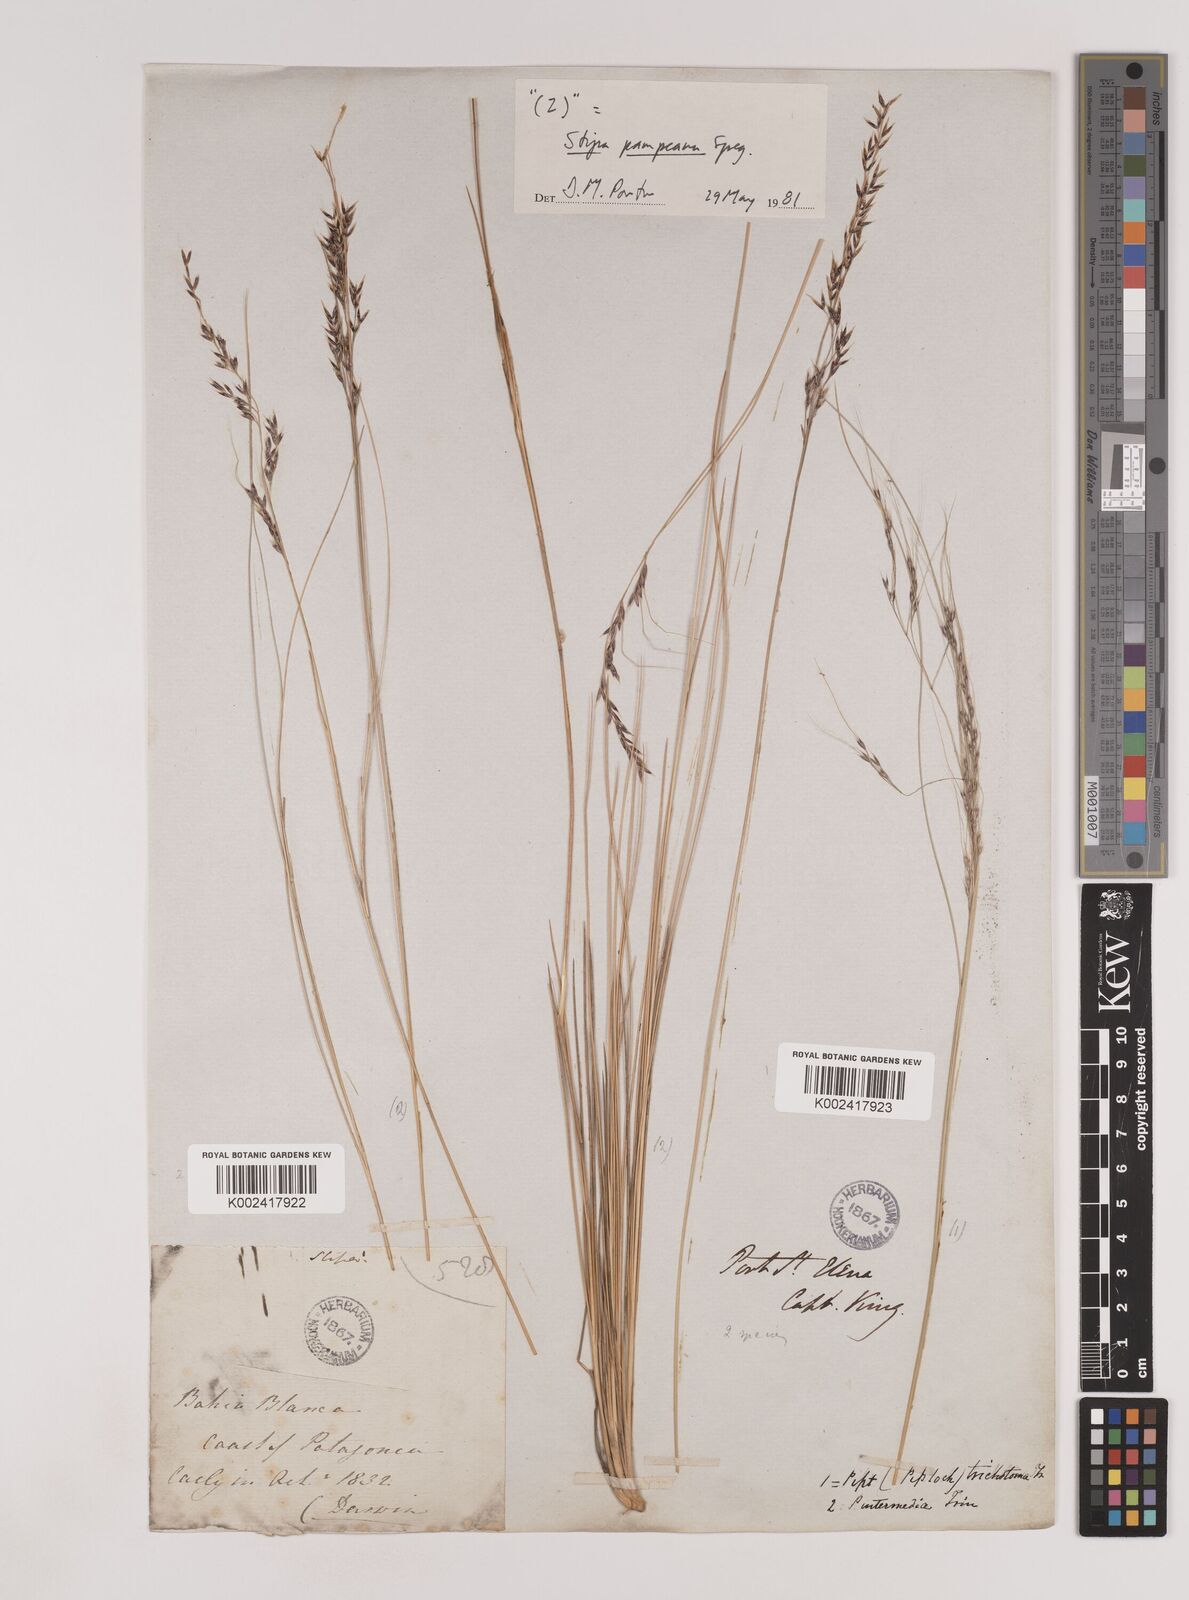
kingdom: Plantae
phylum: Tracheophyta
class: Liliopsida
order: Poales
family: Poaceae
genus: Nassella
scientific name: Nassella pampeana
